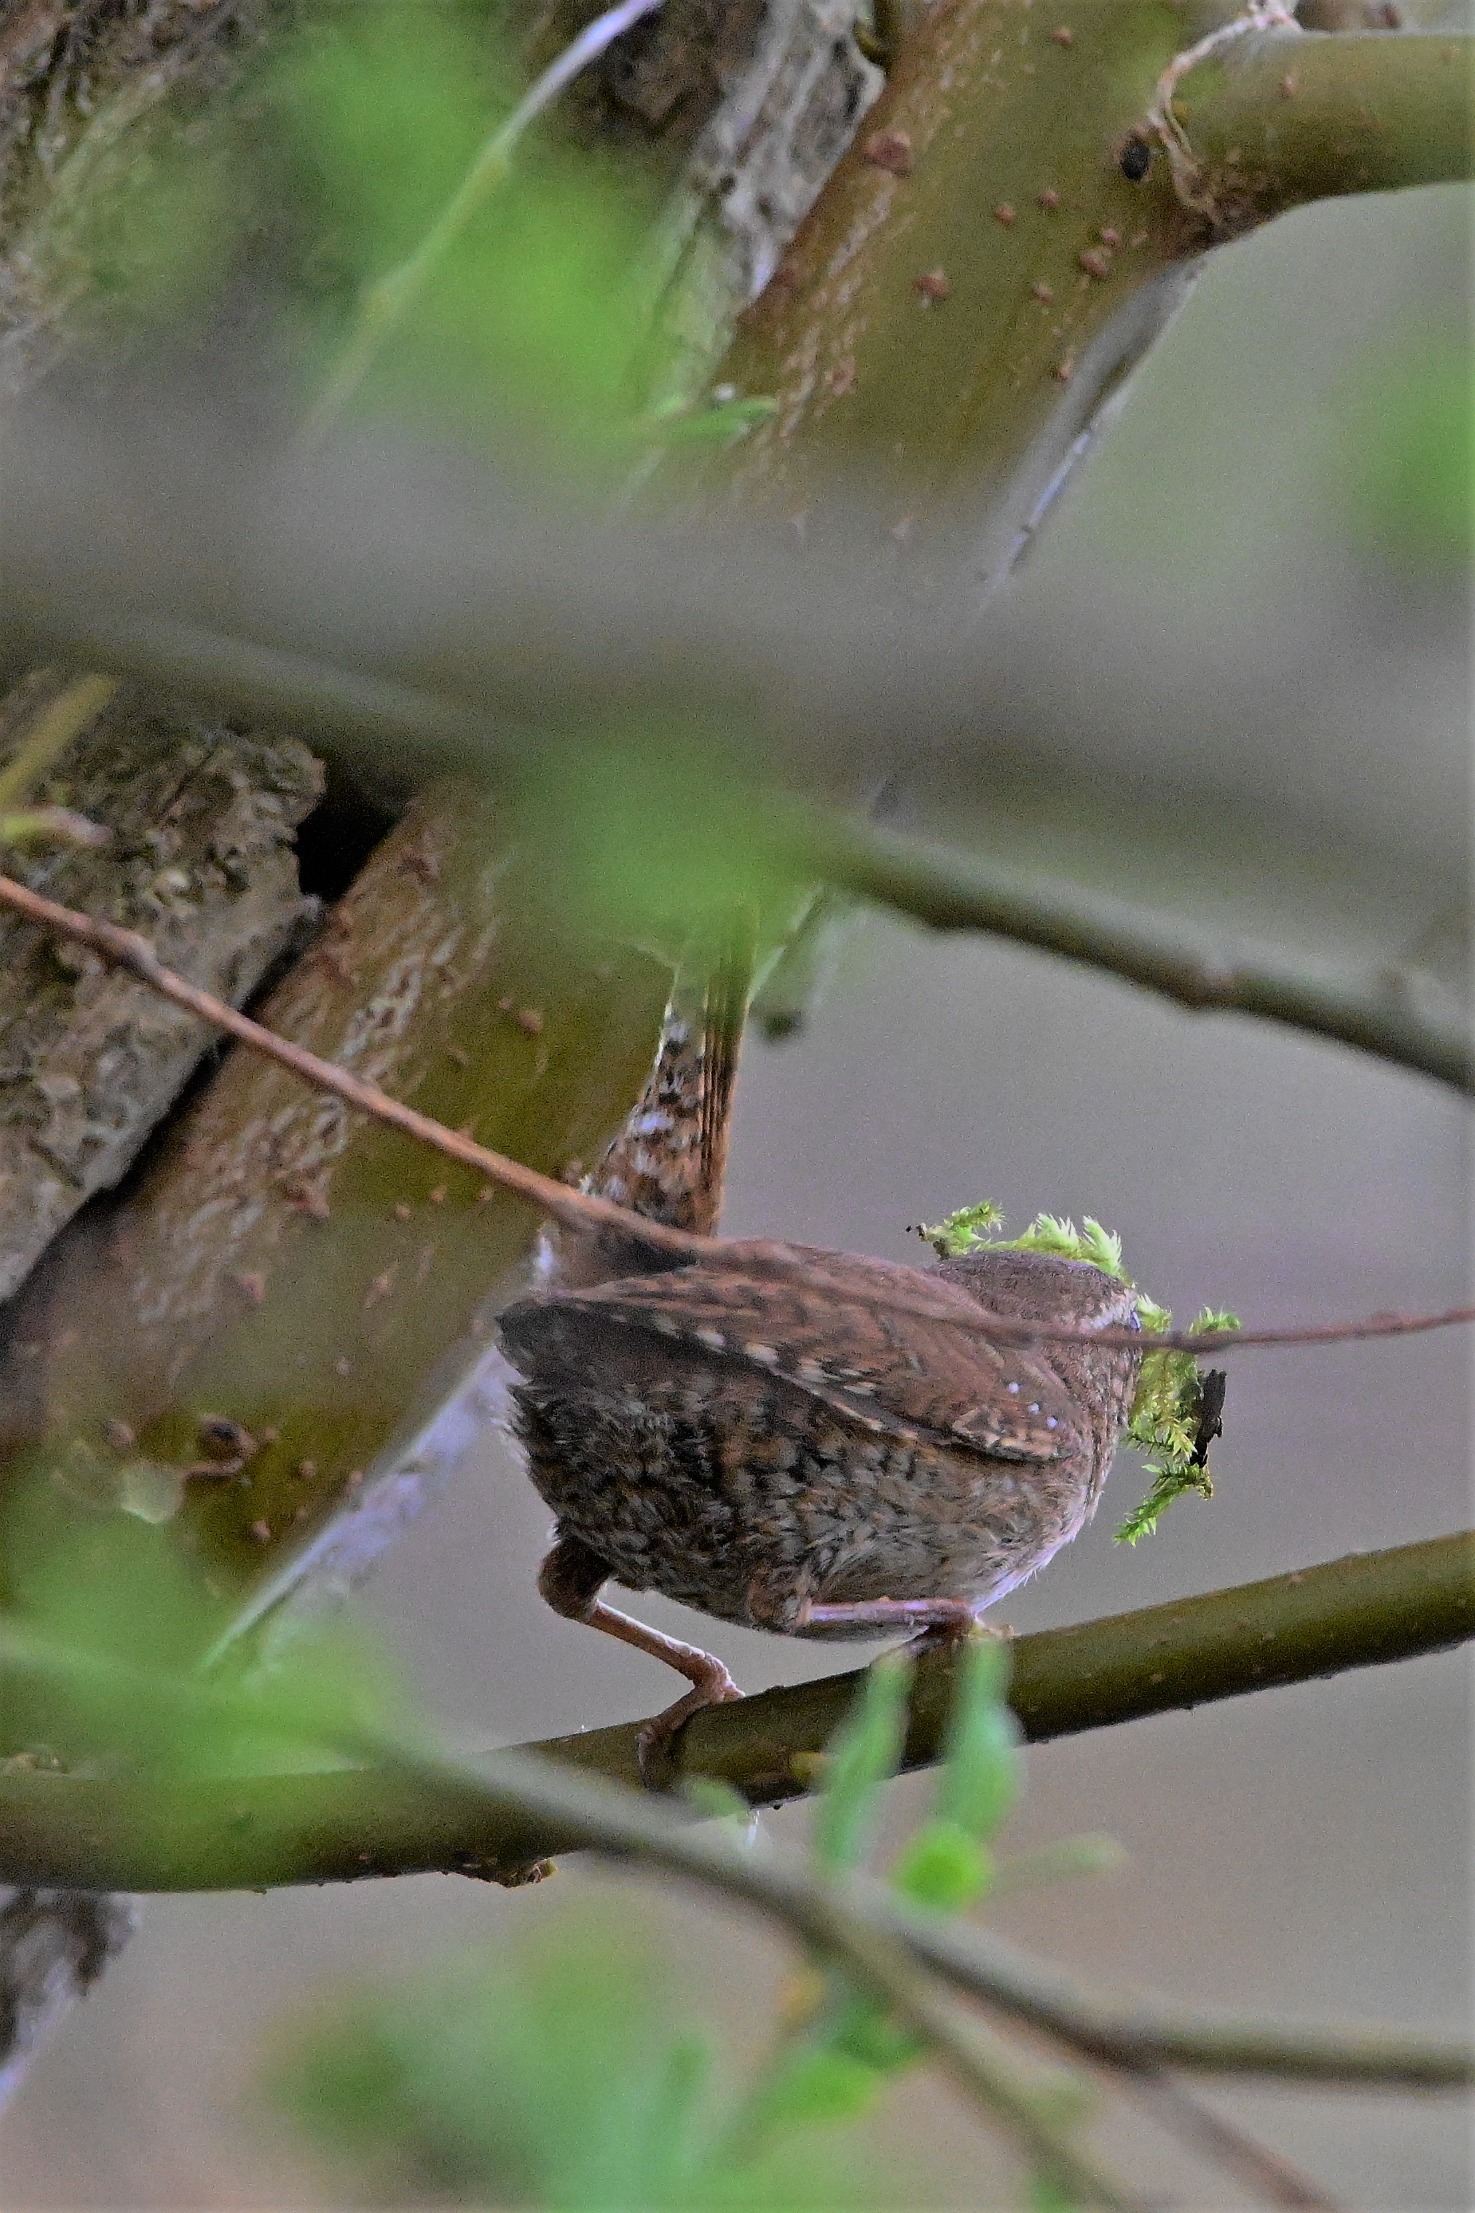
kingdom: Animalia
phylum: Chordata
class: Aves
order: Passeriformes
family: Troglodytidae
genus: Troglodytes
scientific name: Troglodytes troglodytes
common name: Gærdesmutte
